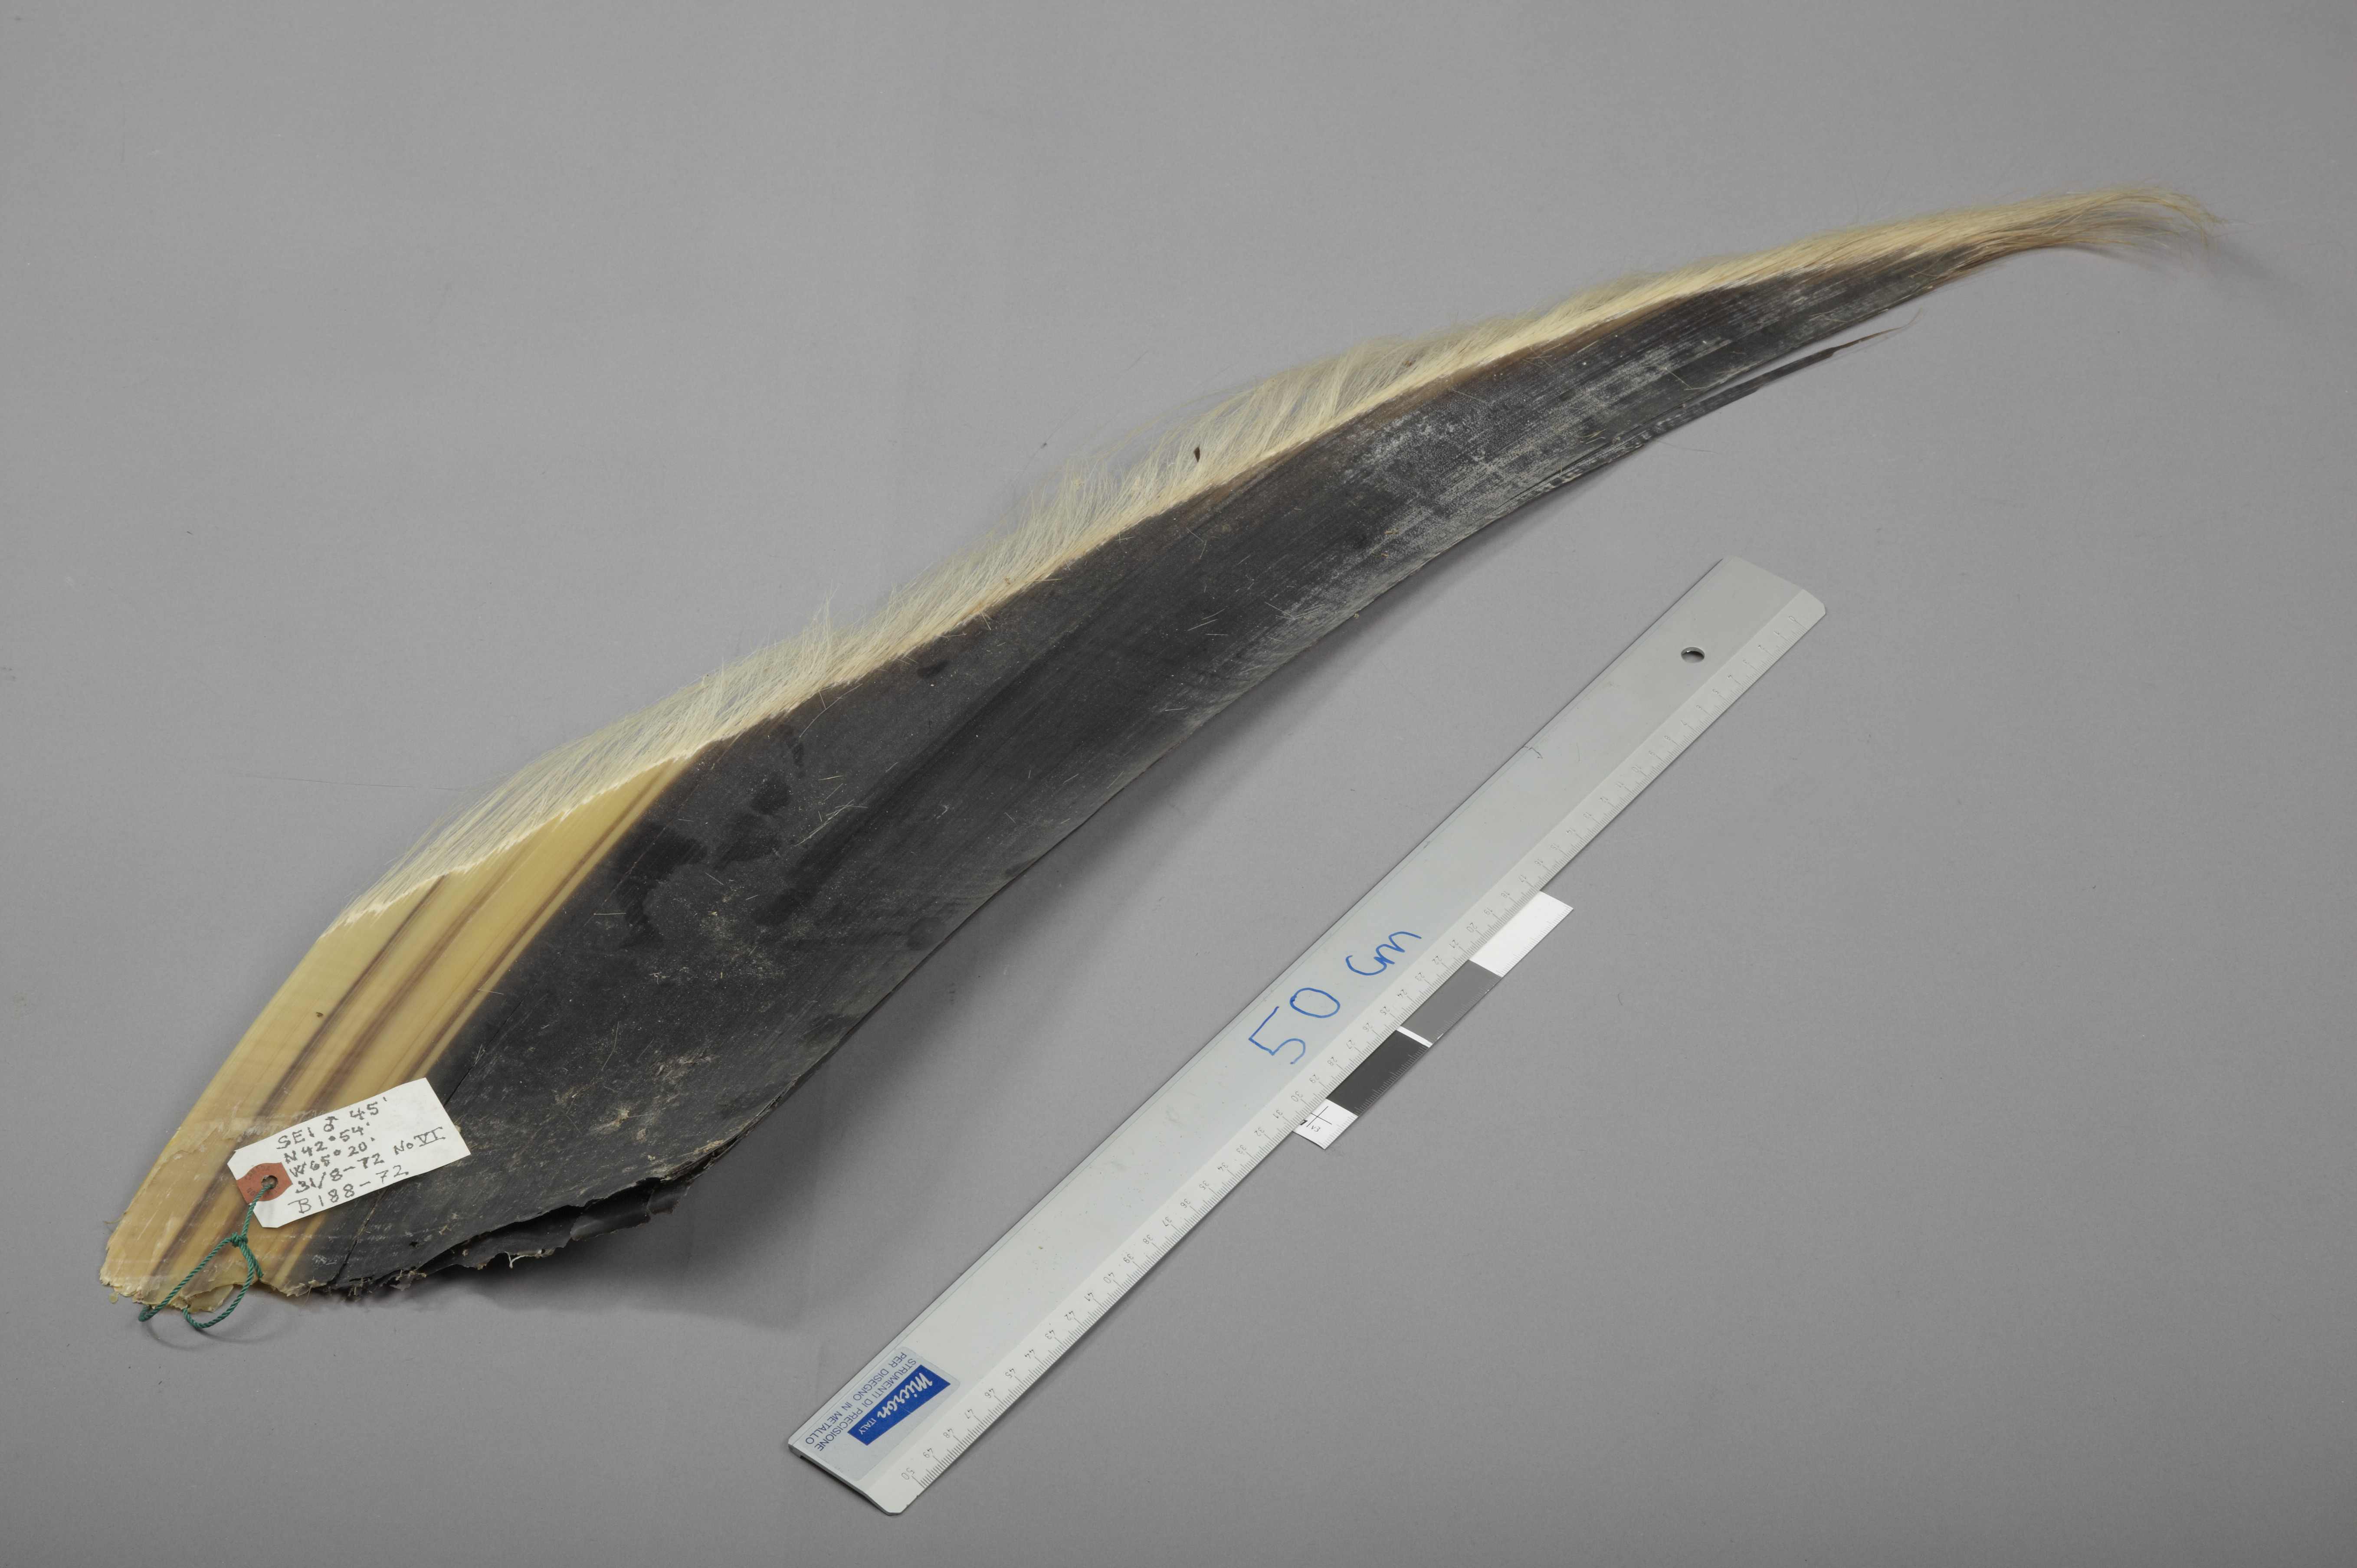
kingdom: Animalia
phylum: Chordata
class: Mammalia
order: Cetacea
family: Balaenopteridae
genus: Balaenoptera
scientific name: Balaenoptera borealis
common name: Sei whale
